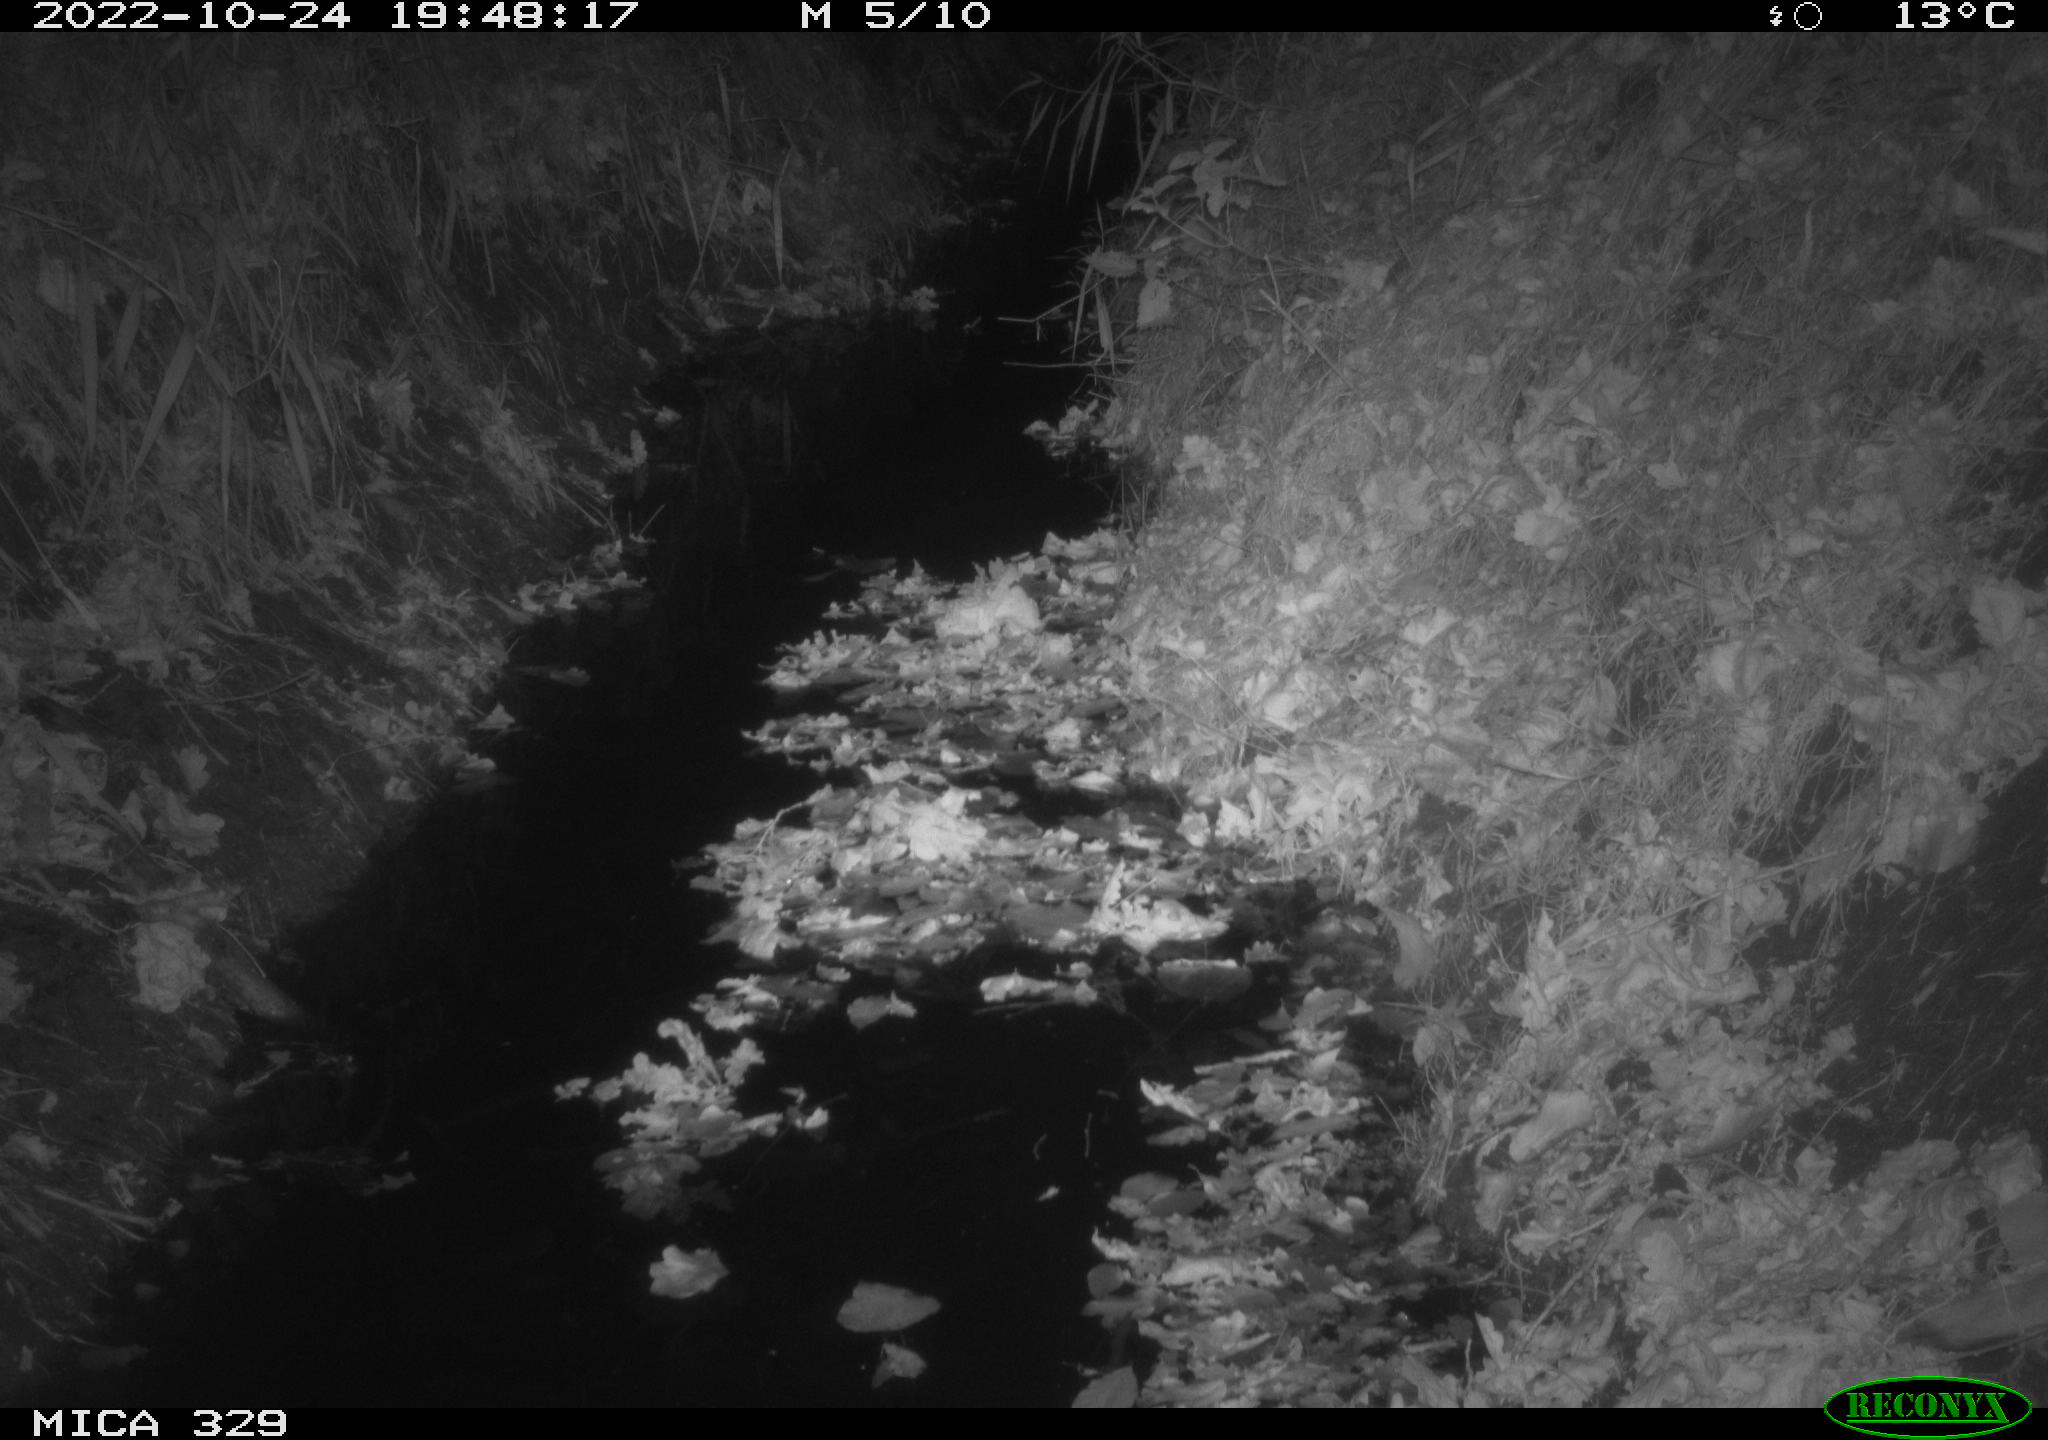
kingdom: Animalia
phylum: Chordata
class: Mammalia
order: Rodentia
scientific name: Rodentia
